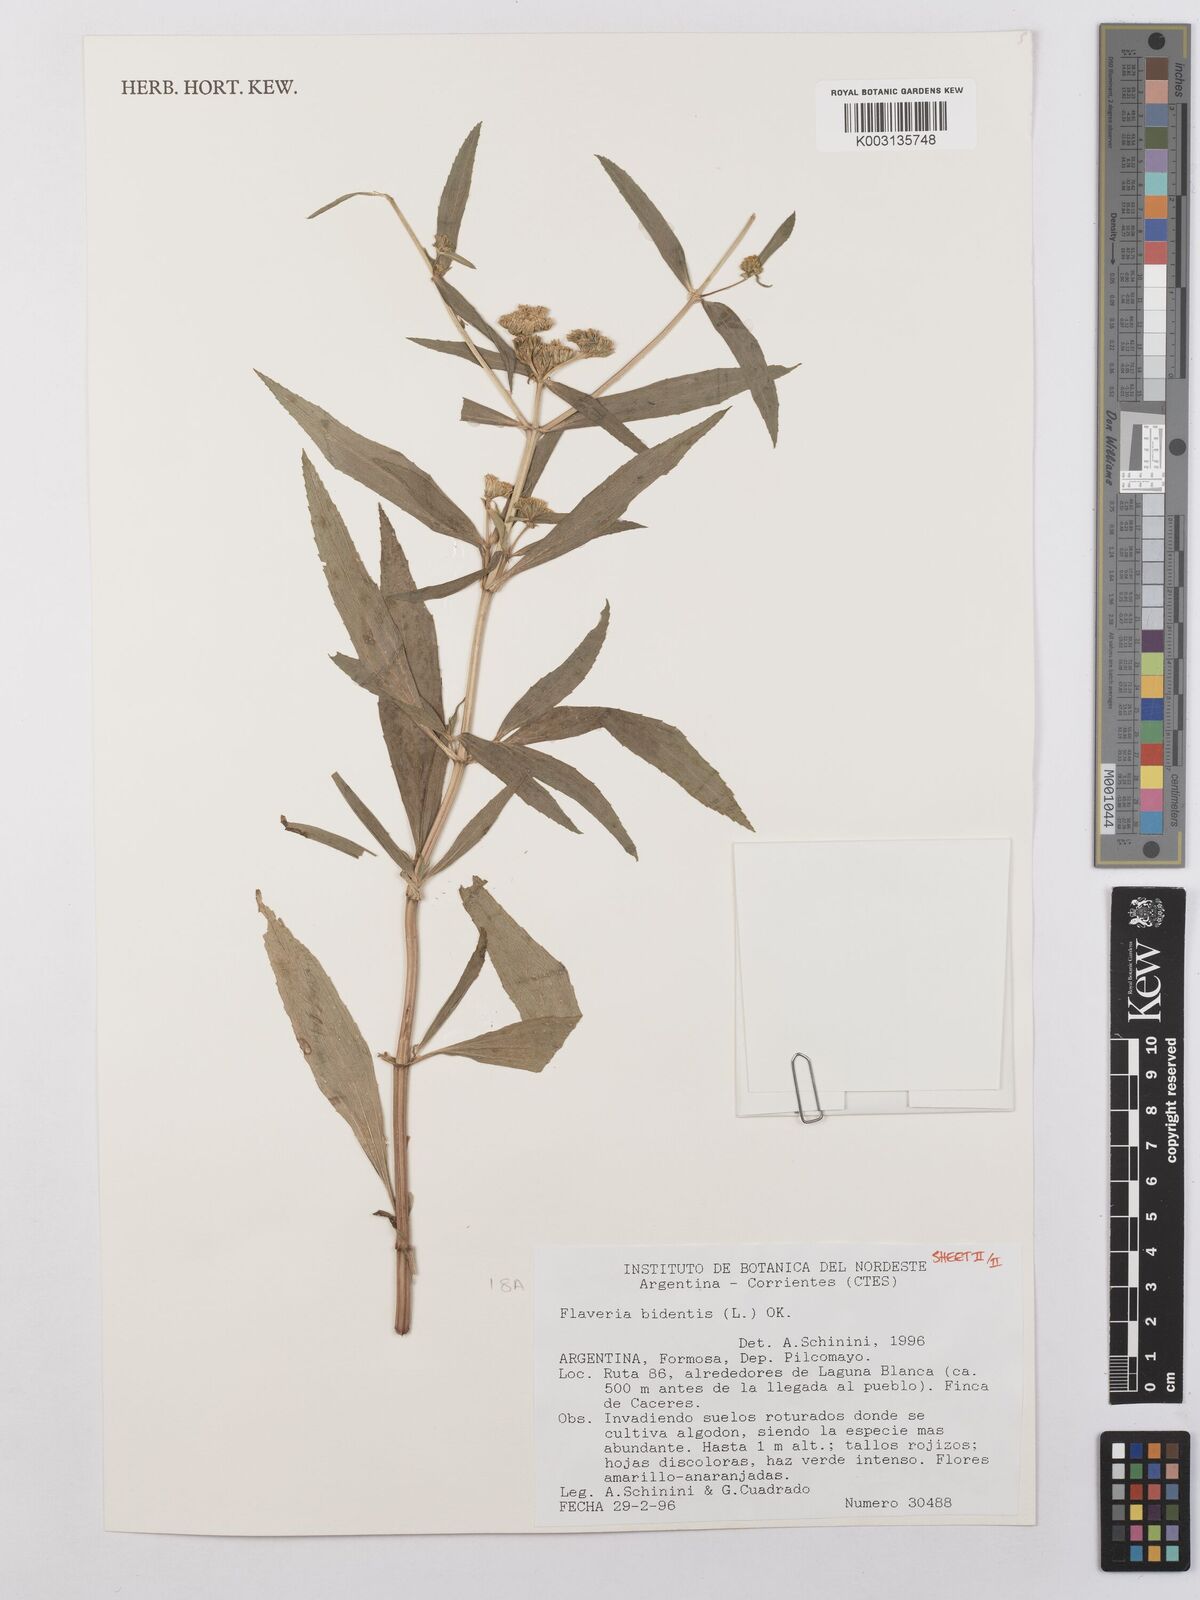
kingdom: Plantae
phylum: Tracheophyta
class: Magnoliopsida
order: Asterales
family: Asteraceae
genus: Flaveria
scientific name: Flaveria bidentis
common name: Coastal plain yellowtops
